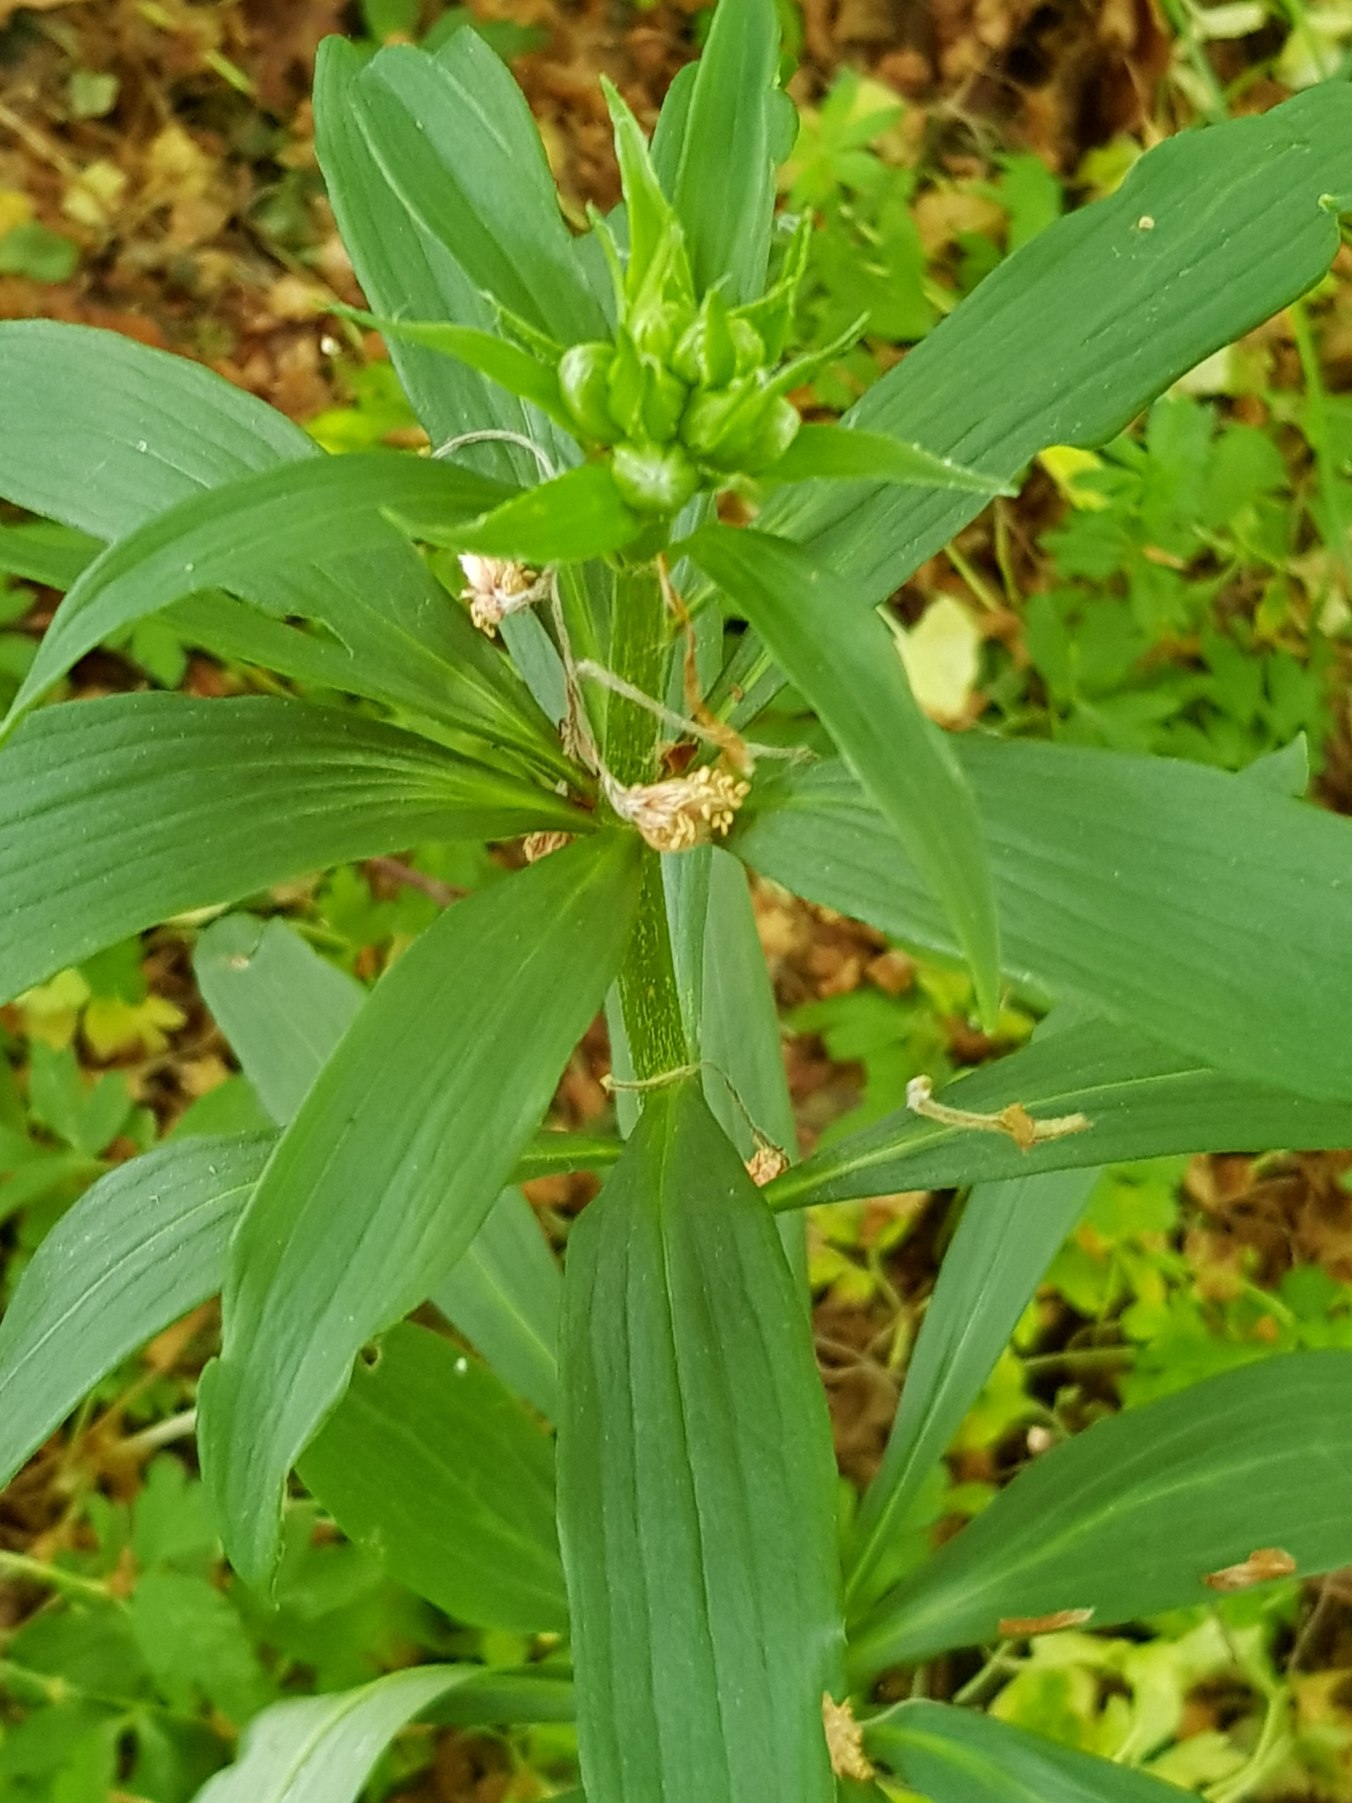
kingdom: Plantae
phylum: Tracheophyta
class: Liliopsida
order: Liliales
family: Liliaceae
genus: Lilium
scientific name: Lilium martagon
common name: Krans-lilje
